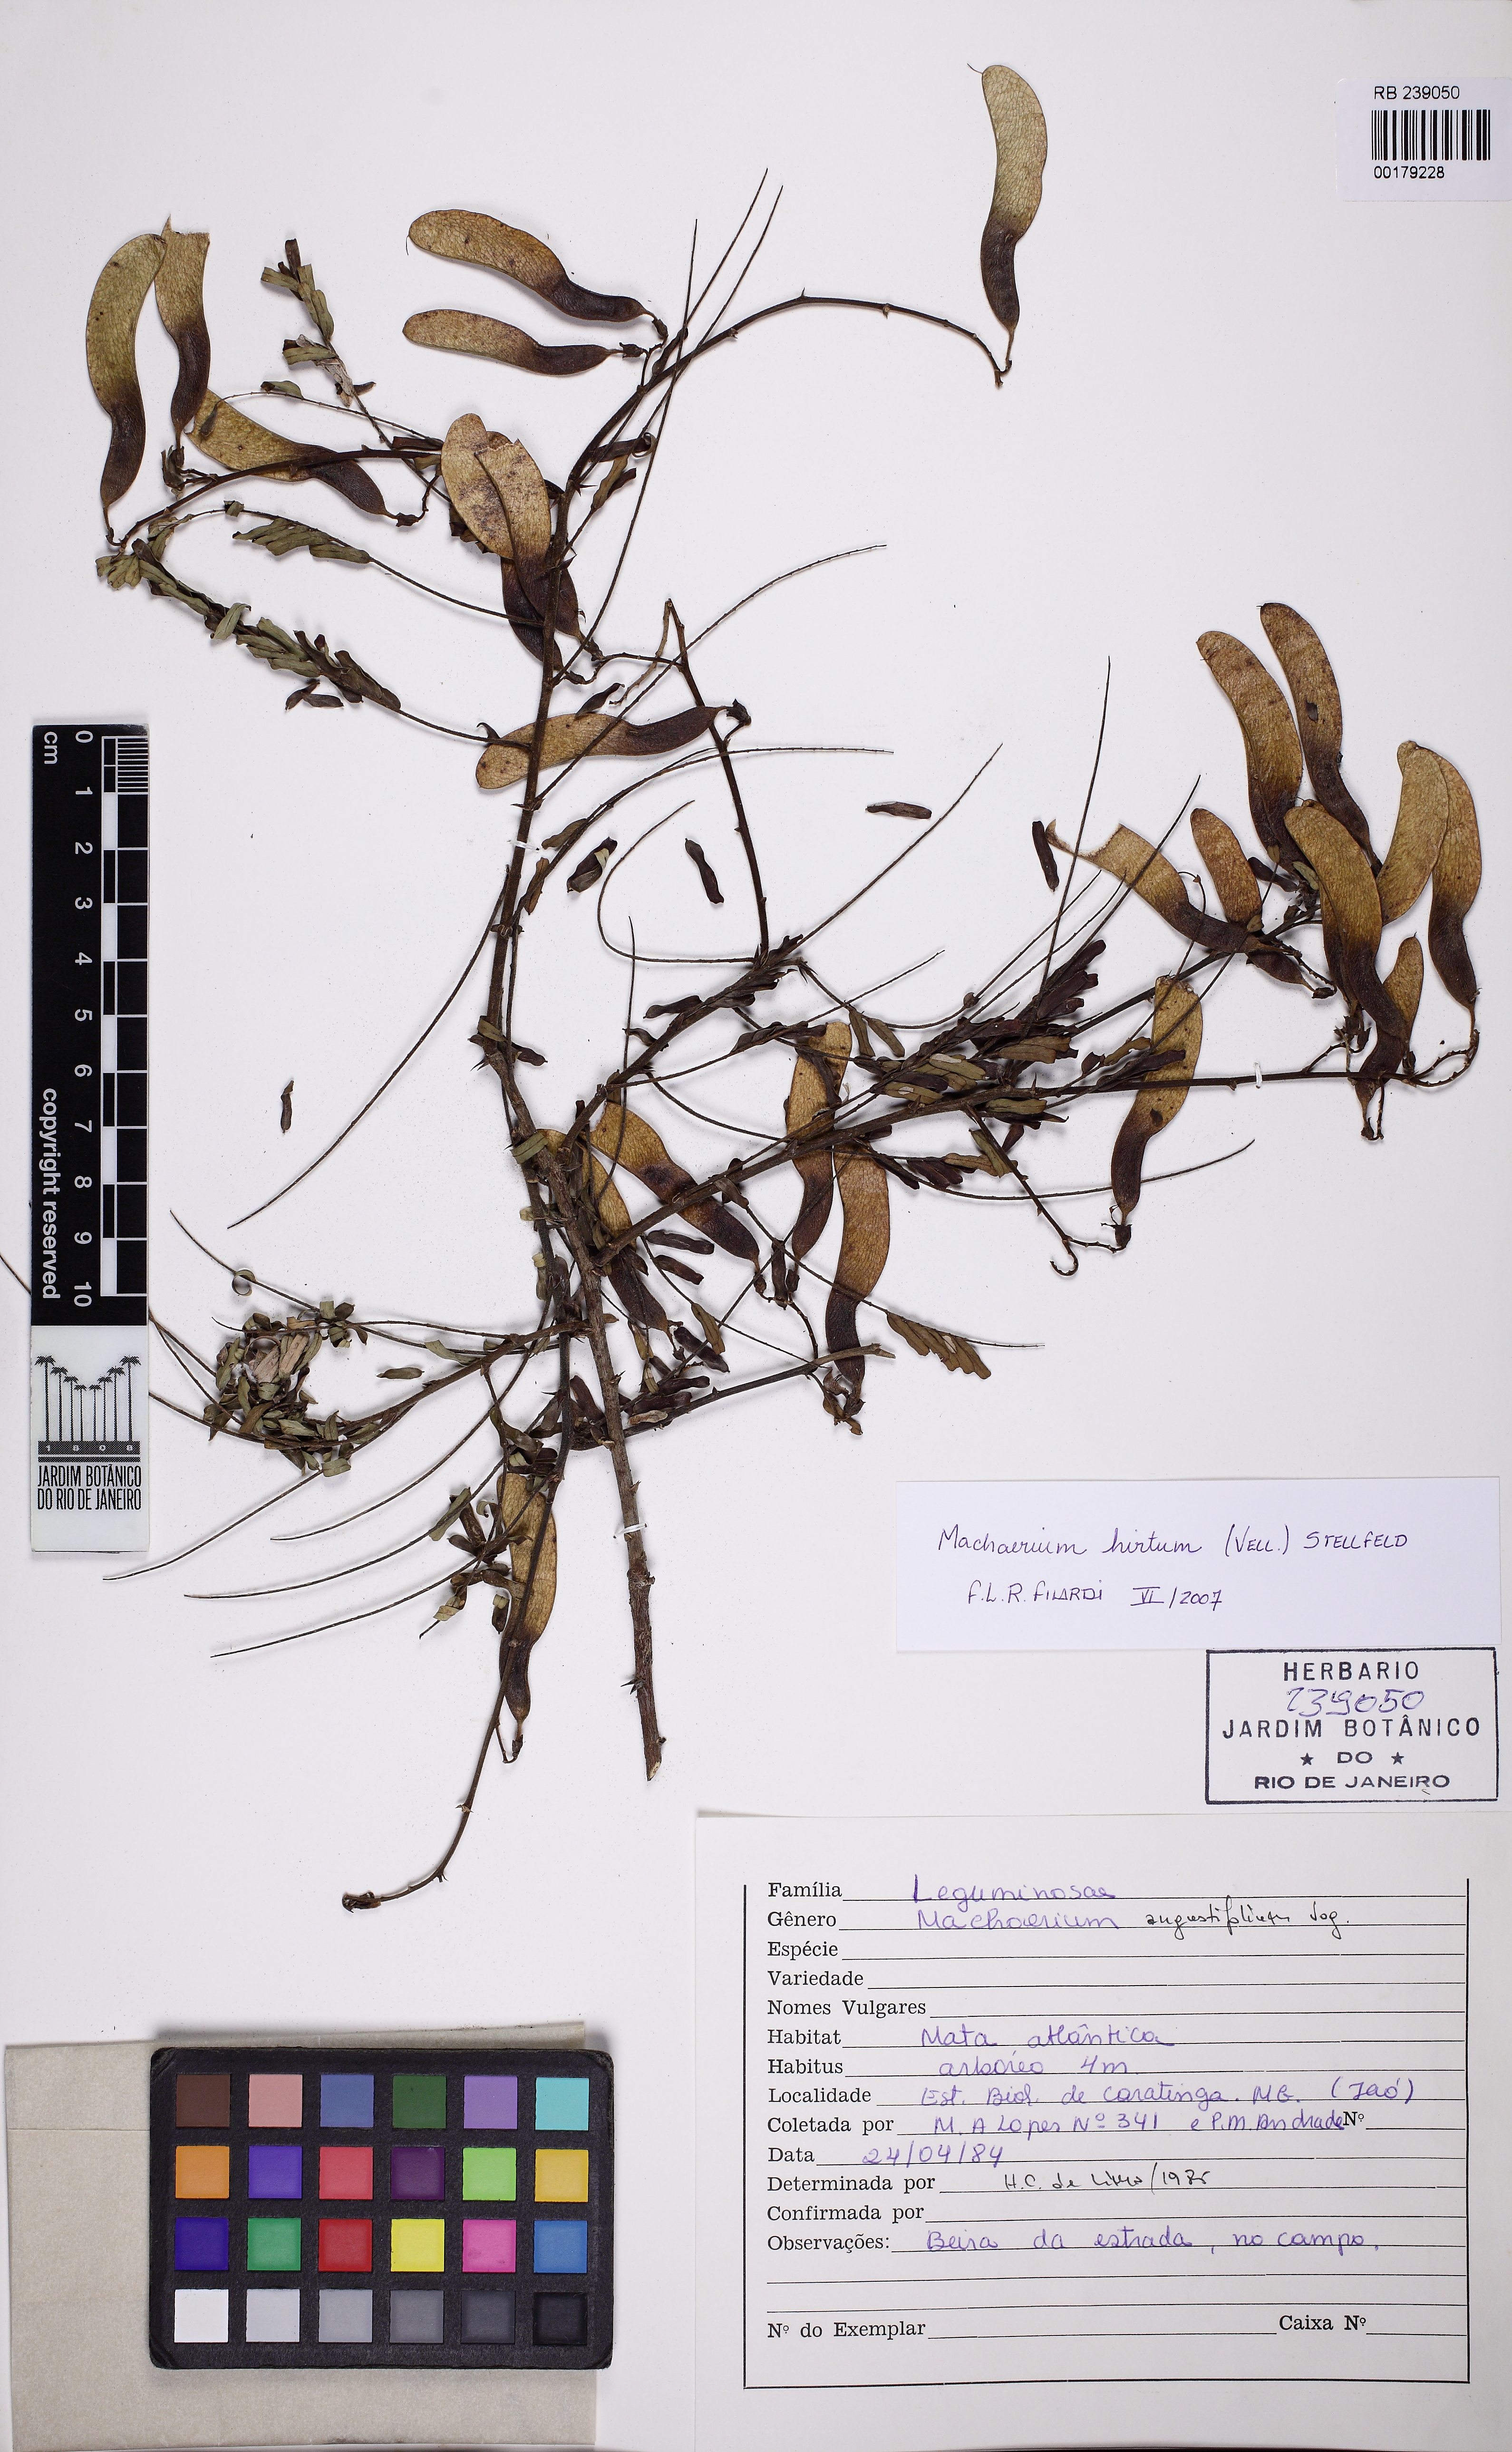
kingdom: Plantae
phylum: Tracheophyta
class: Magnoliopsida
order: Fabales
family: Fabaceae
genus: Machaerium
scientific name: Machaerium hirtum
